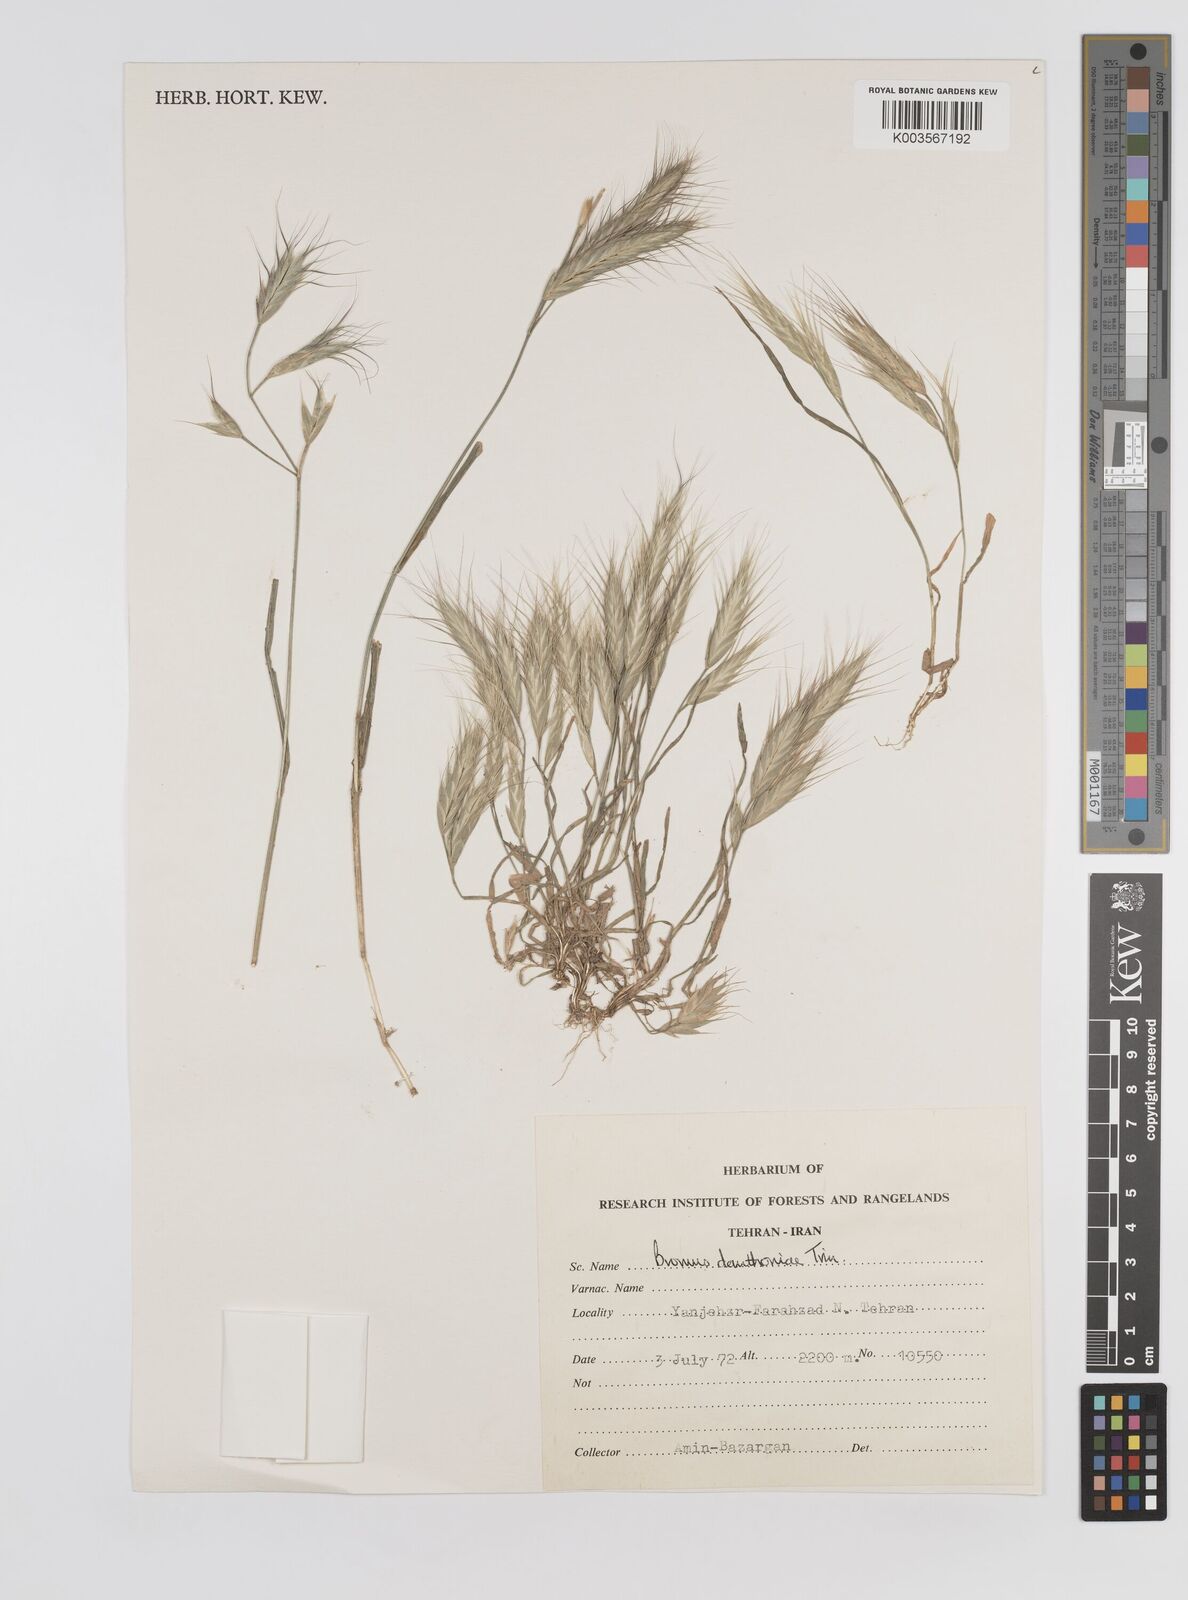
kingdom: Plantae
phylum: Tracheophyta
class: Liliopsida
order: Poales
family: Poaceae
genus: Bromus
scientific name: Bromus danthoniae
